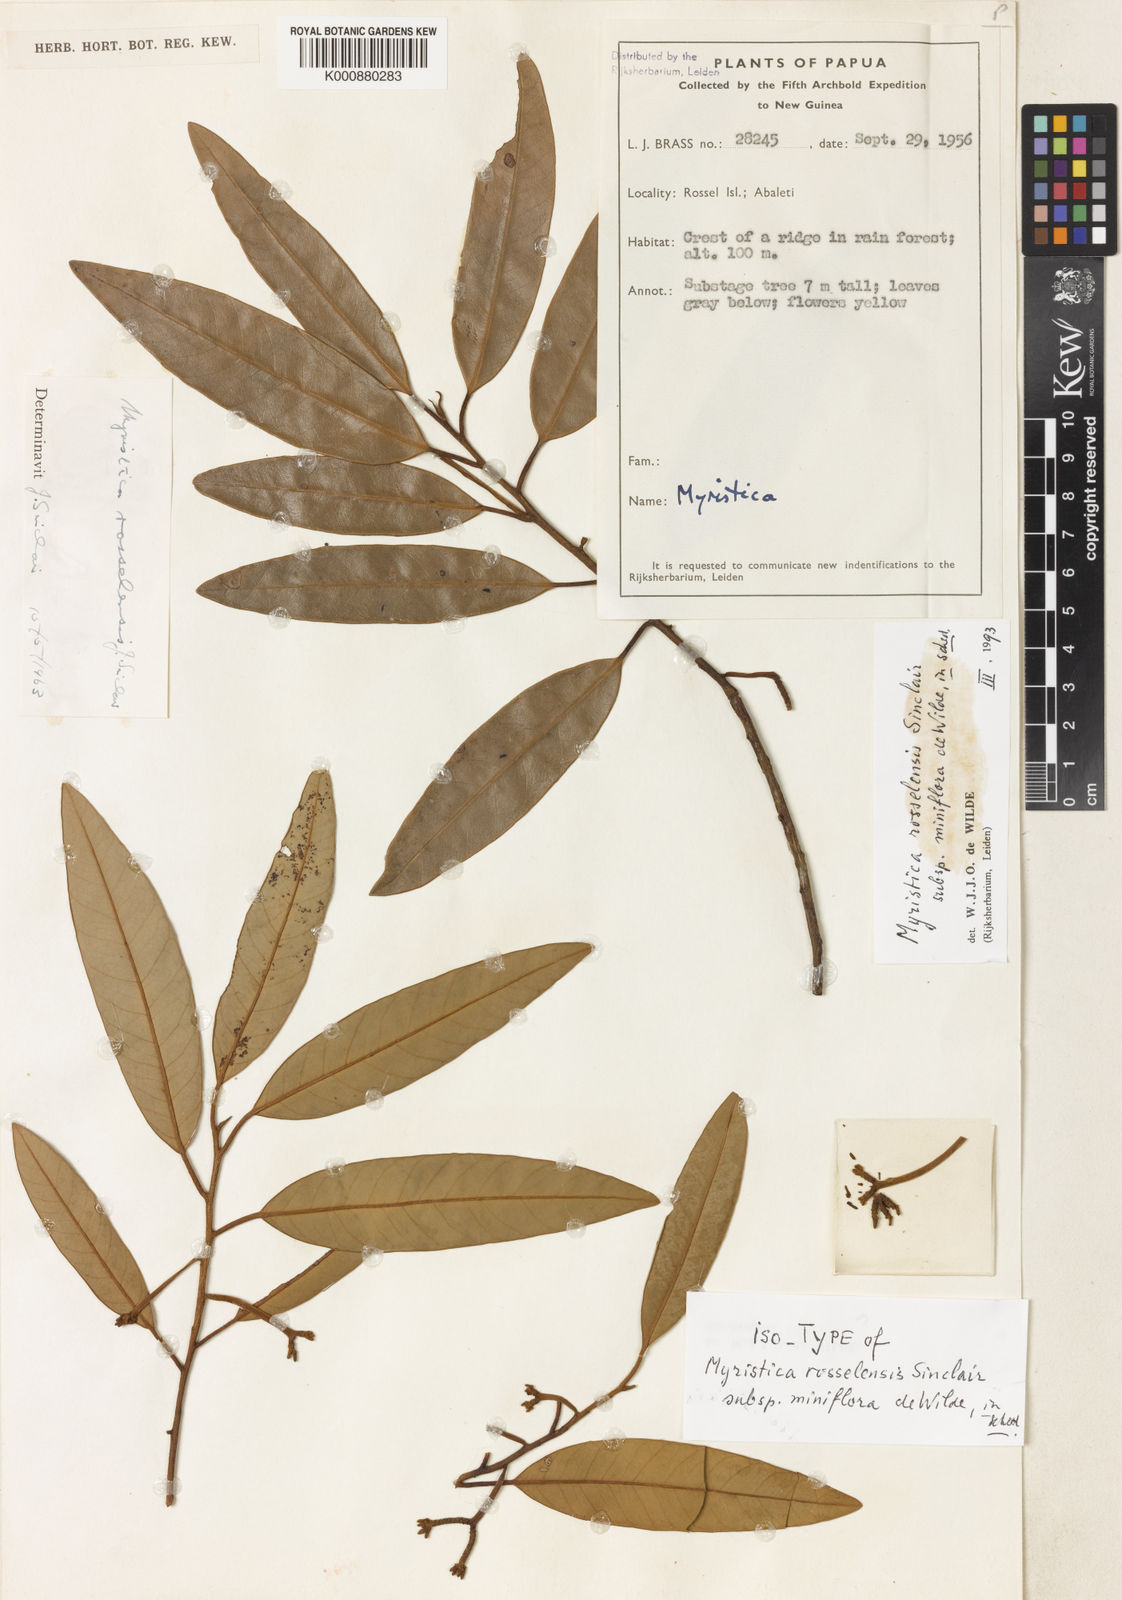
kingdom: Plantae
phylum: Tracheophyta
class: Magnoliopsida
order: Magnoliales
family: Myristicaceae
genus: Myristica
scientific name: Myristica rosselensis
